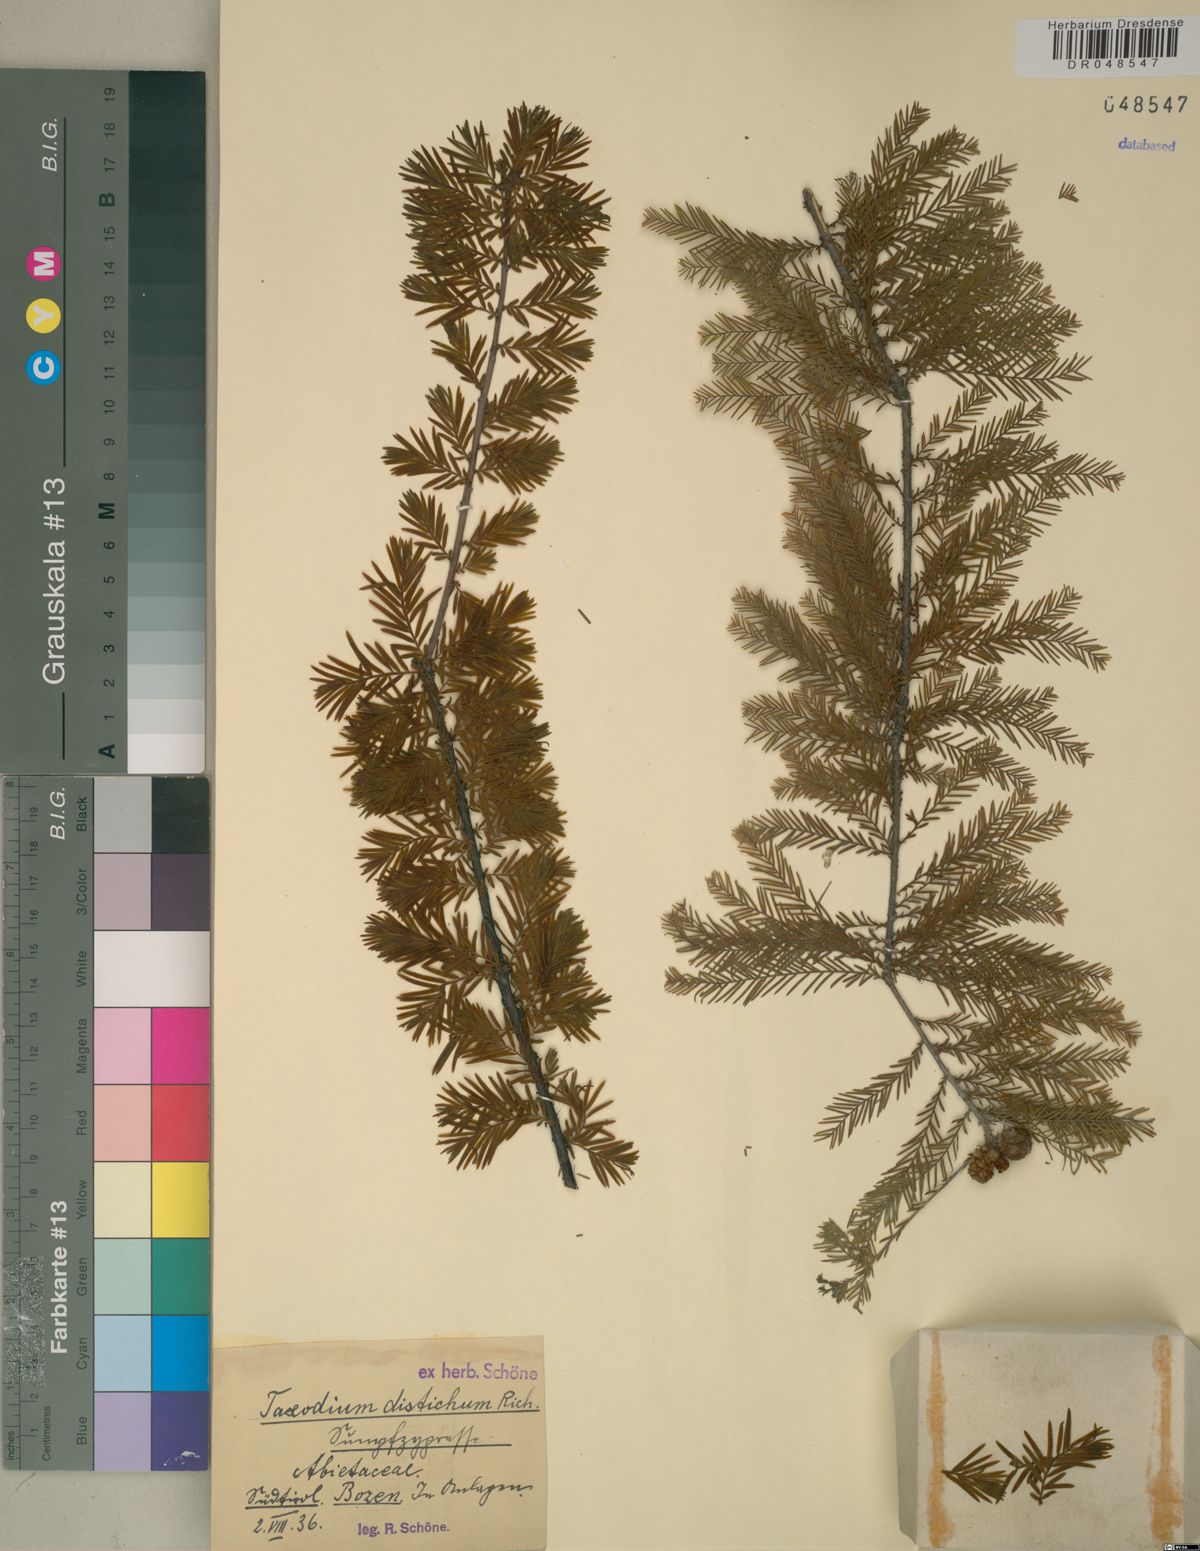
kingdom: Plantae
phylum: Tracheophyta
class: Pinopsida
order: Pinales
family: Cupressaceae
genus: Taxodium
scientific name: Taxodium distichum
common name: Bald cypress
